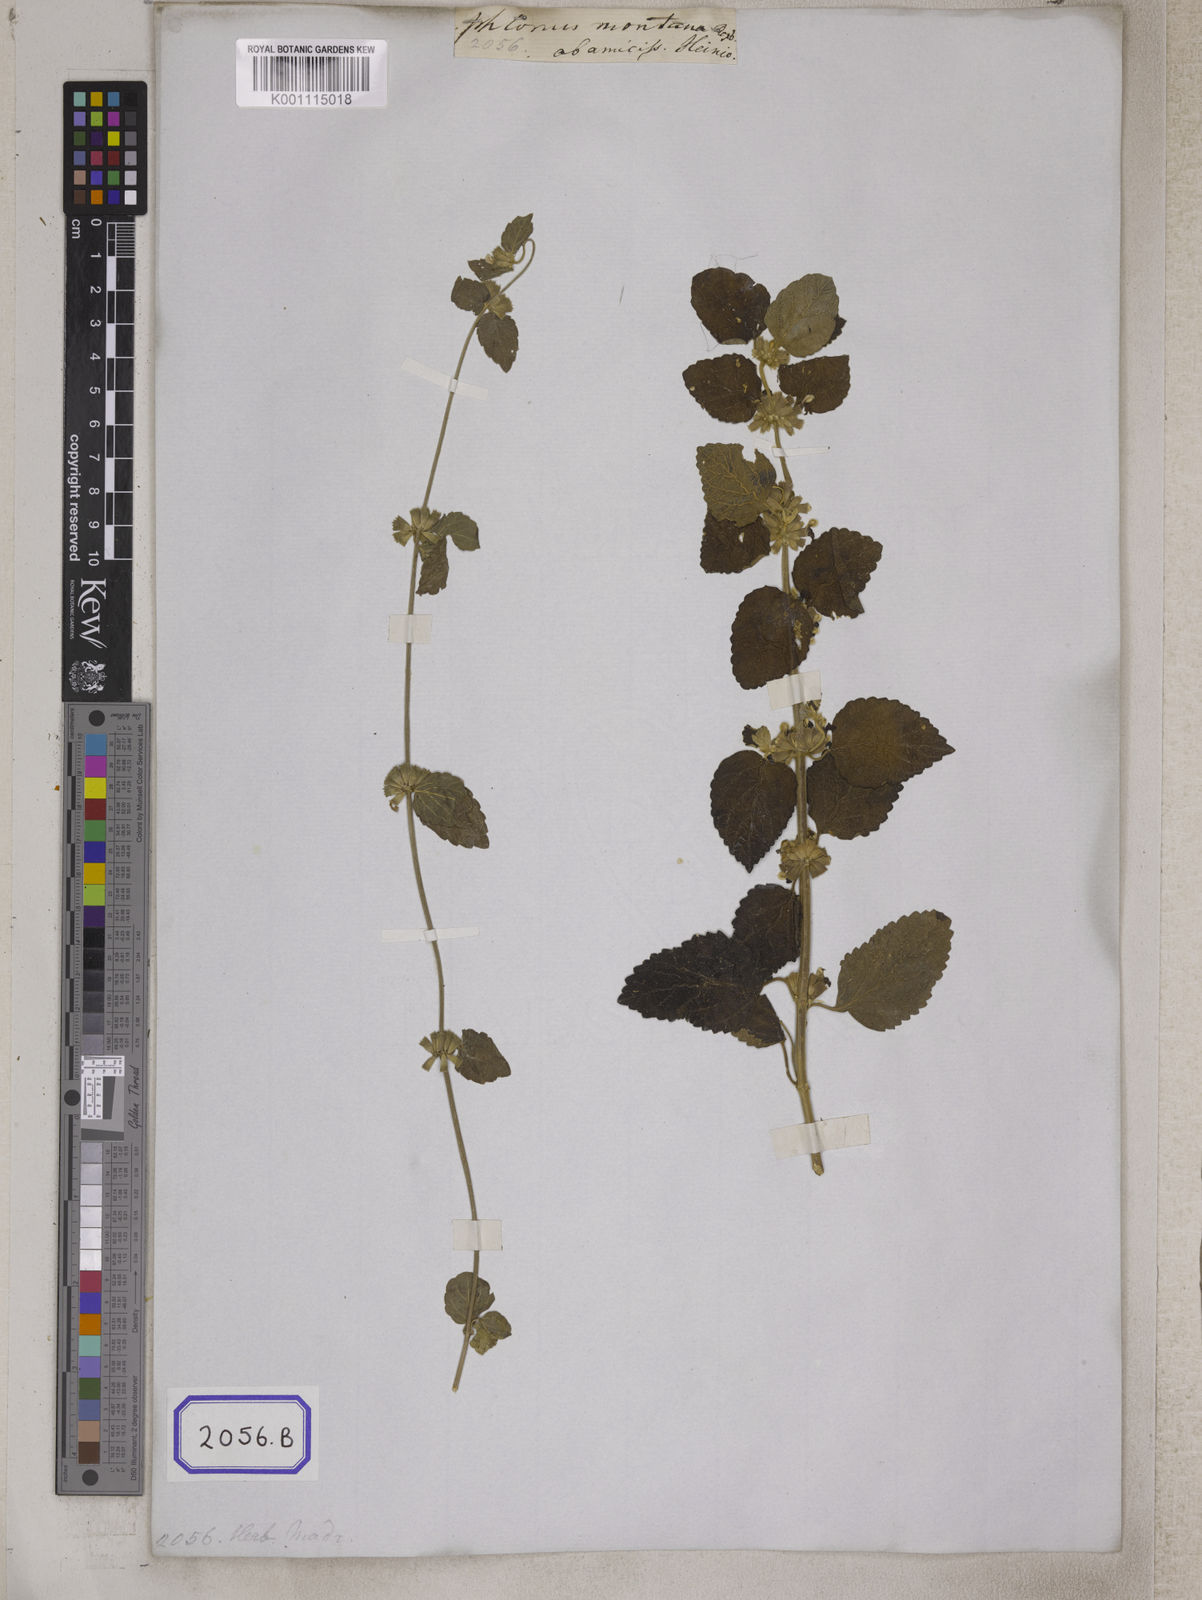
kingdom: Plantae
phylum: Tracheophyta
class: Magnoliopsida
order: Lamiales
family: Lamiaceae
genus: Leucas
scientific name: Leucas montana
